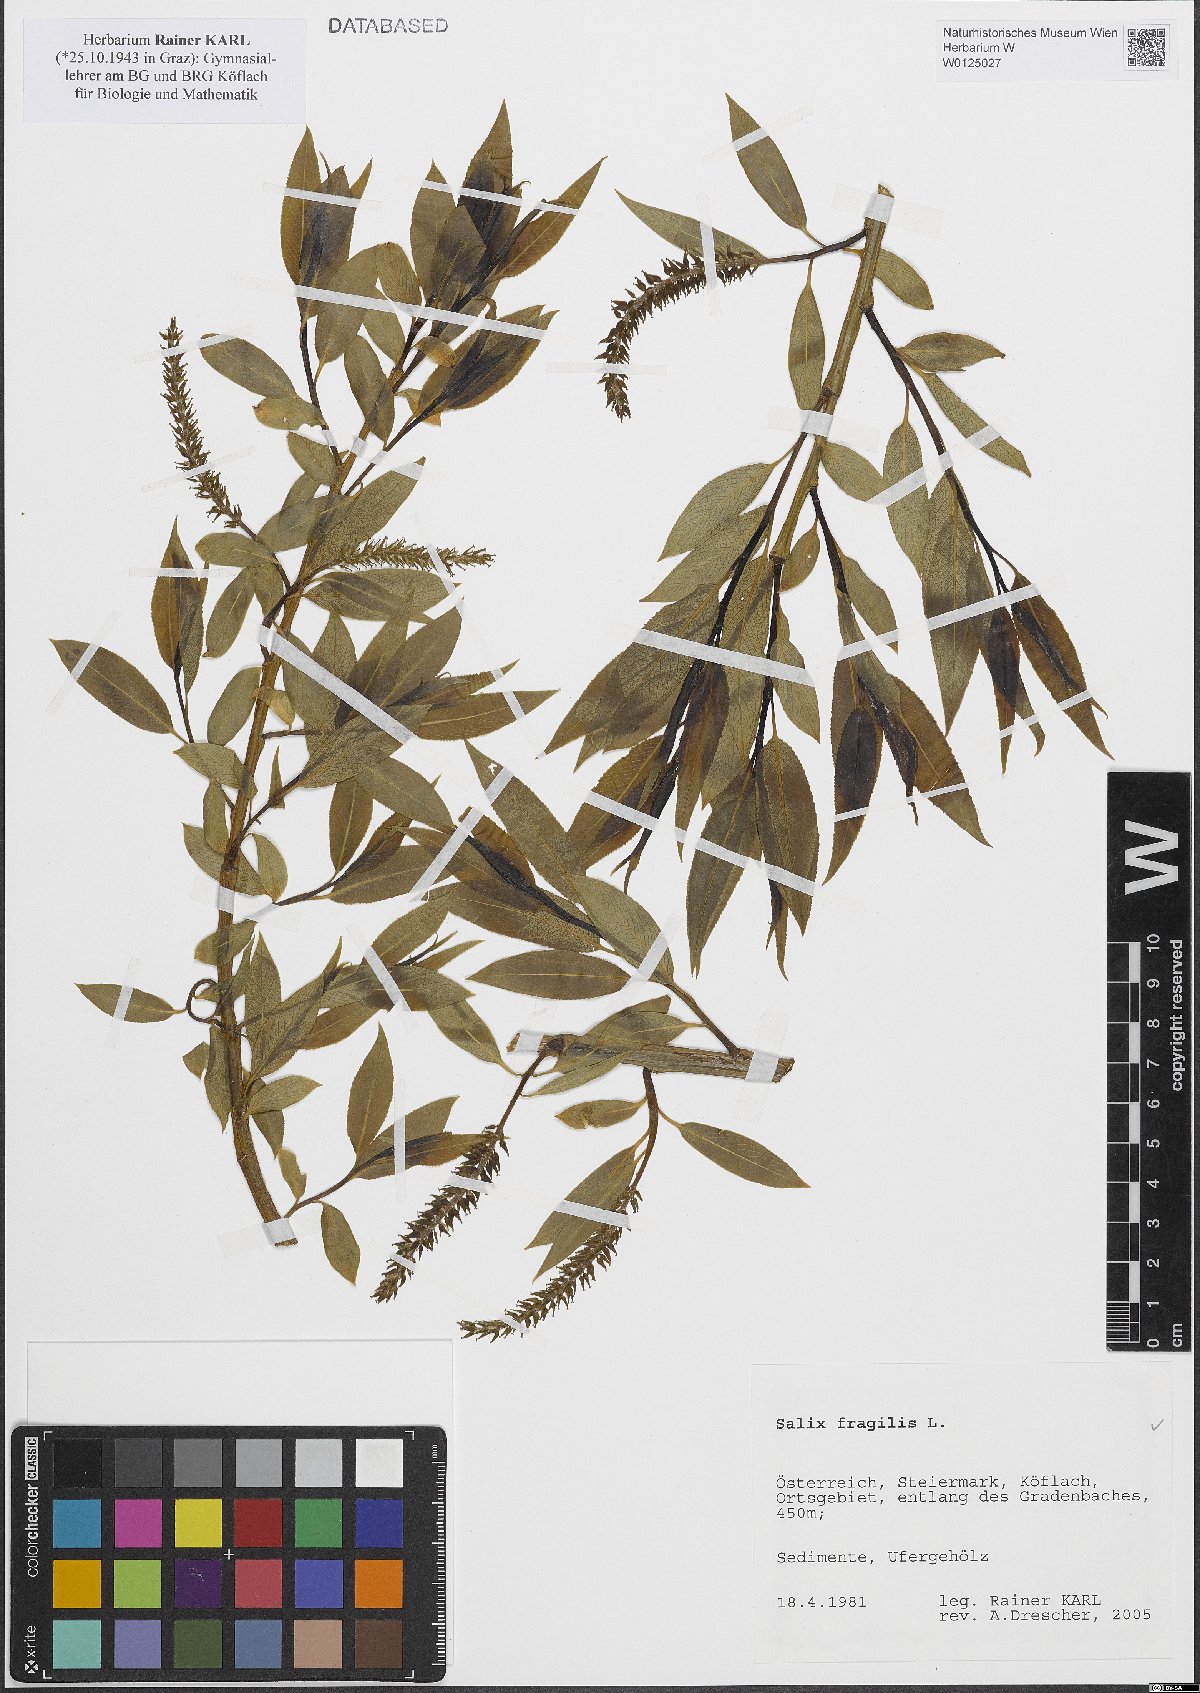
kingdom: Plantae
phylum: Tracheophyta
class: Magnoliopsida
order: Malpighiales
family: Salicaceae
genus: Salix
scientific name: Salix fragilis
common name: Crack willow
